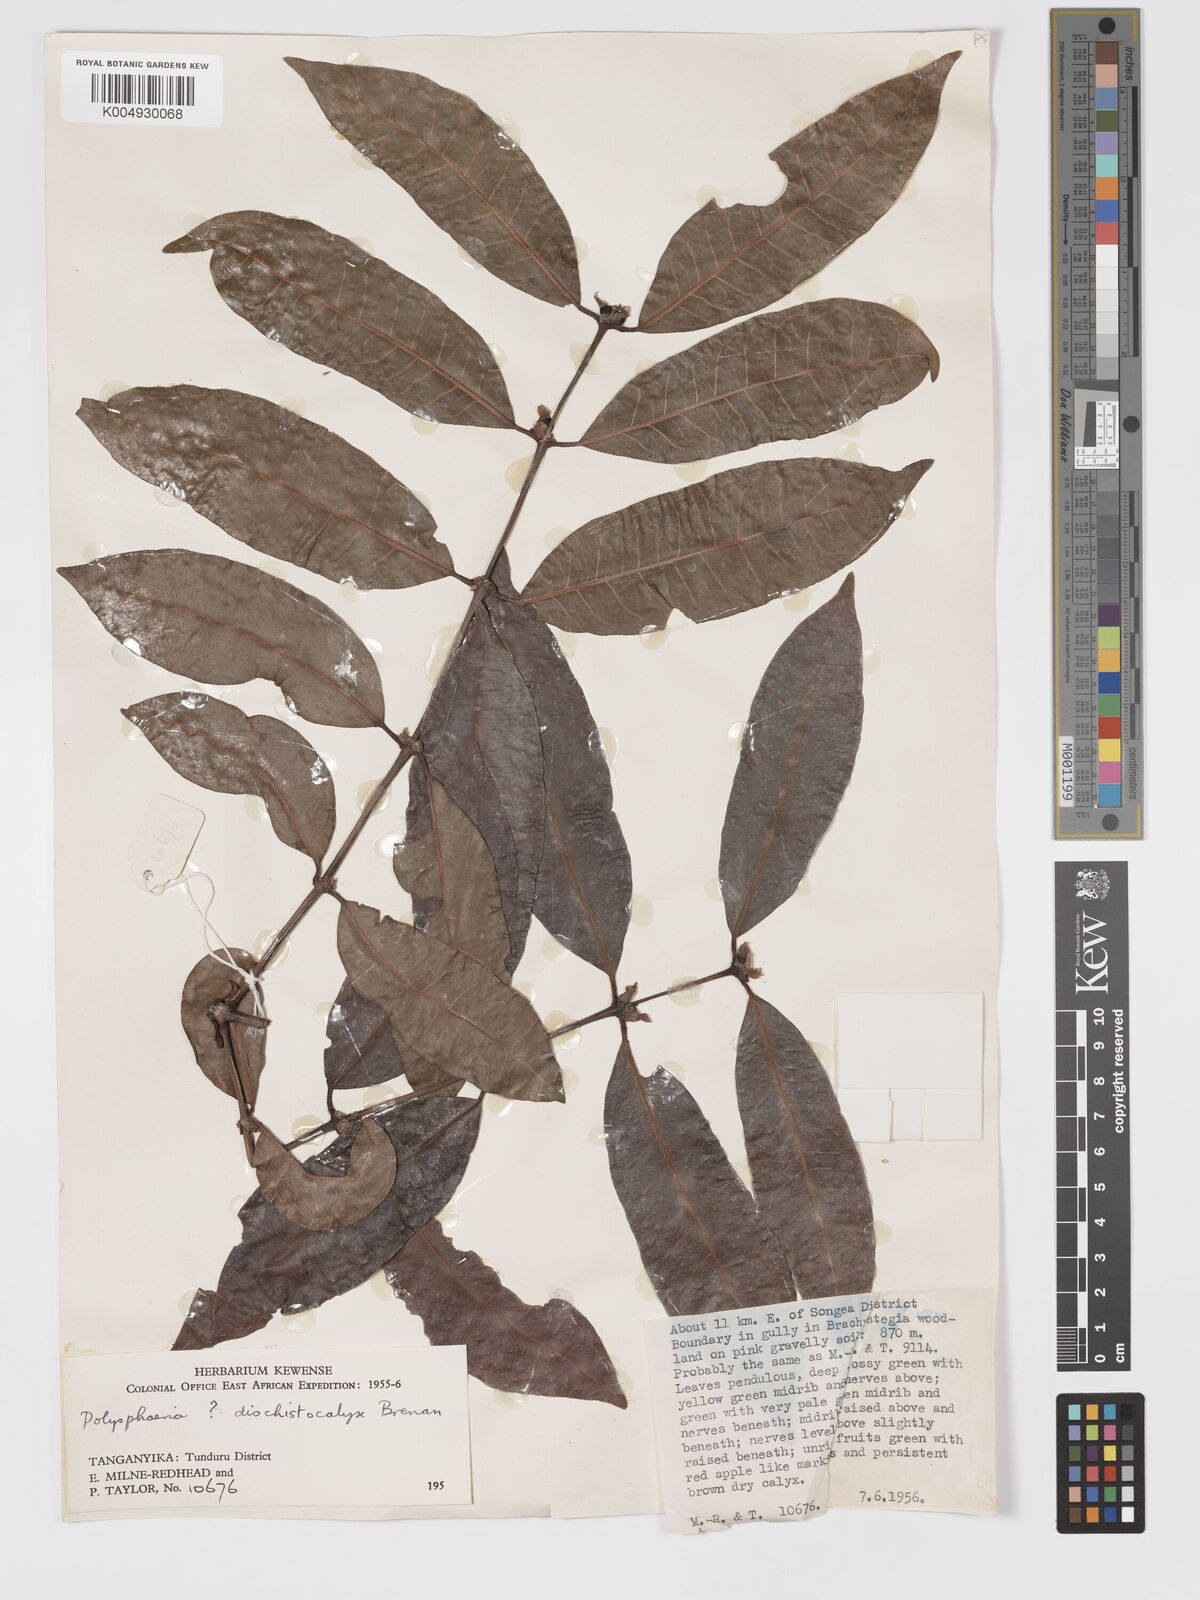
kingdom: Plantae
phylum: Tracheophyta
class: Magnoliopsida
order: Gentianales
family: Rubiaceae
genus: Polysphaeria
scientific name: Polysphaeria dischistocalyx
